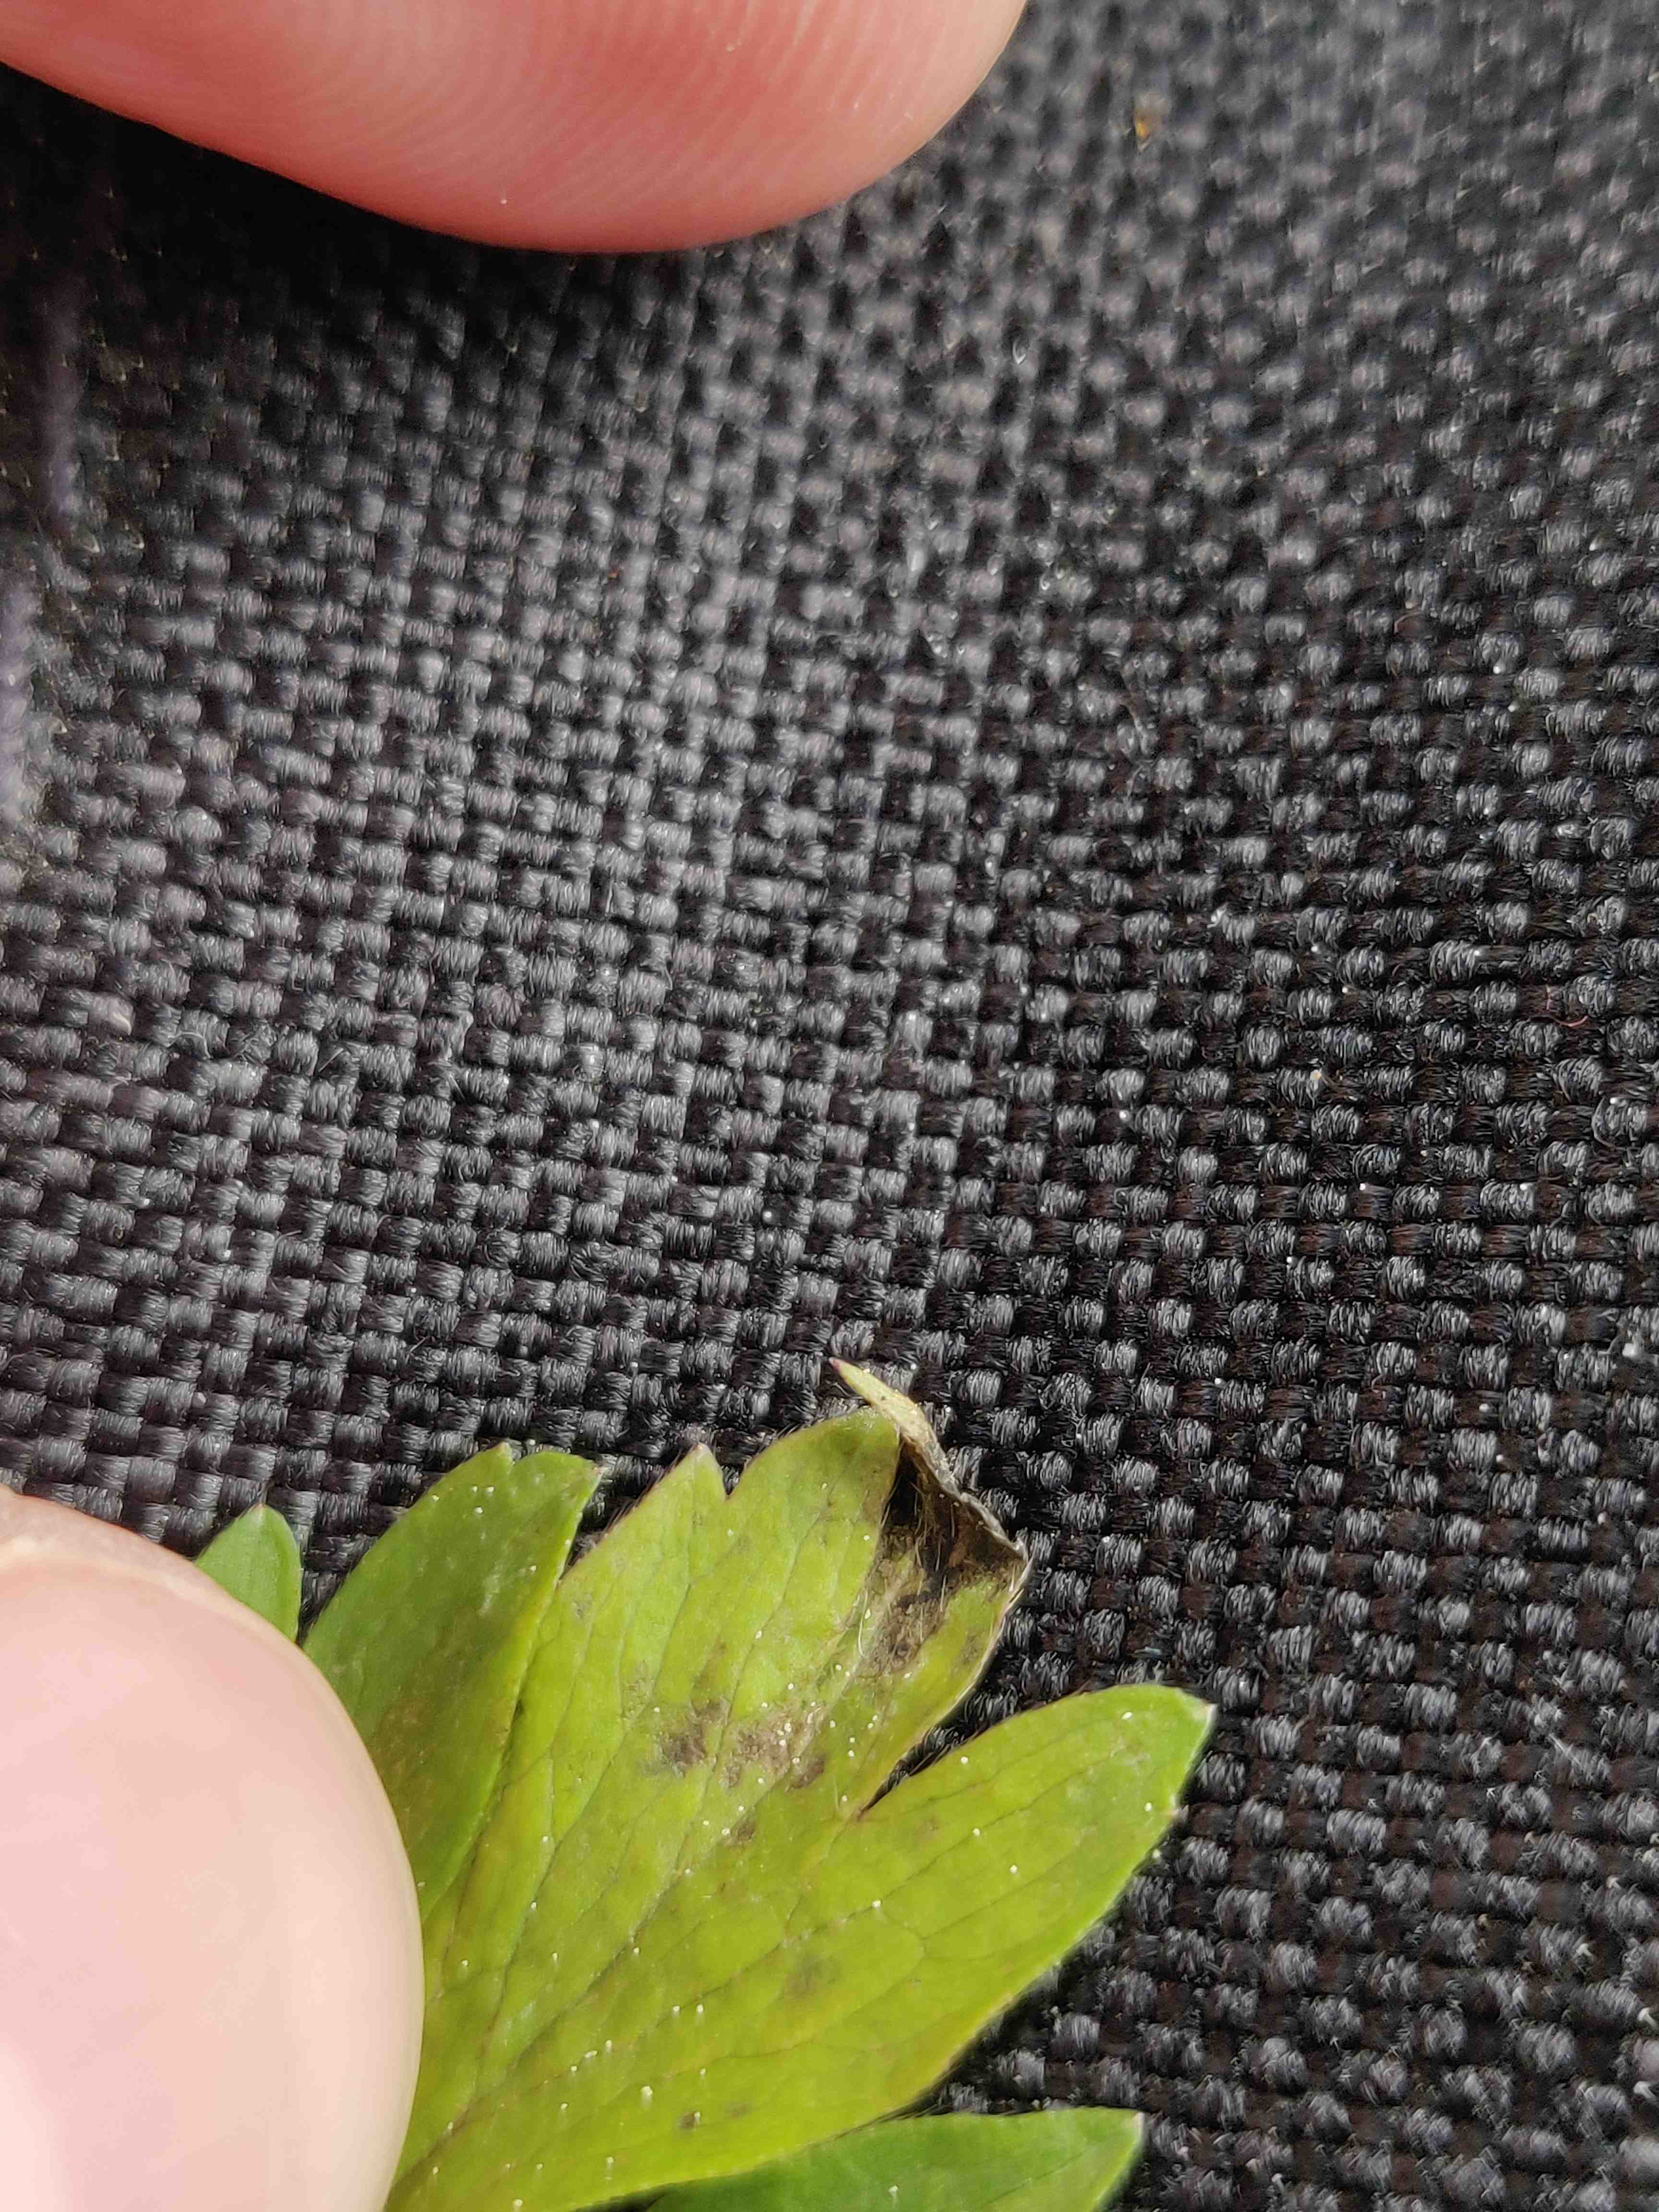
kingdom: Fungi
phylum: Basidiomycota
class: Ustilaginomycetes
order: Urocystidales
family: Urocystidaceae
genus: Urocystis
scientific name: Urocystis anemones
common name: anemone-brand
